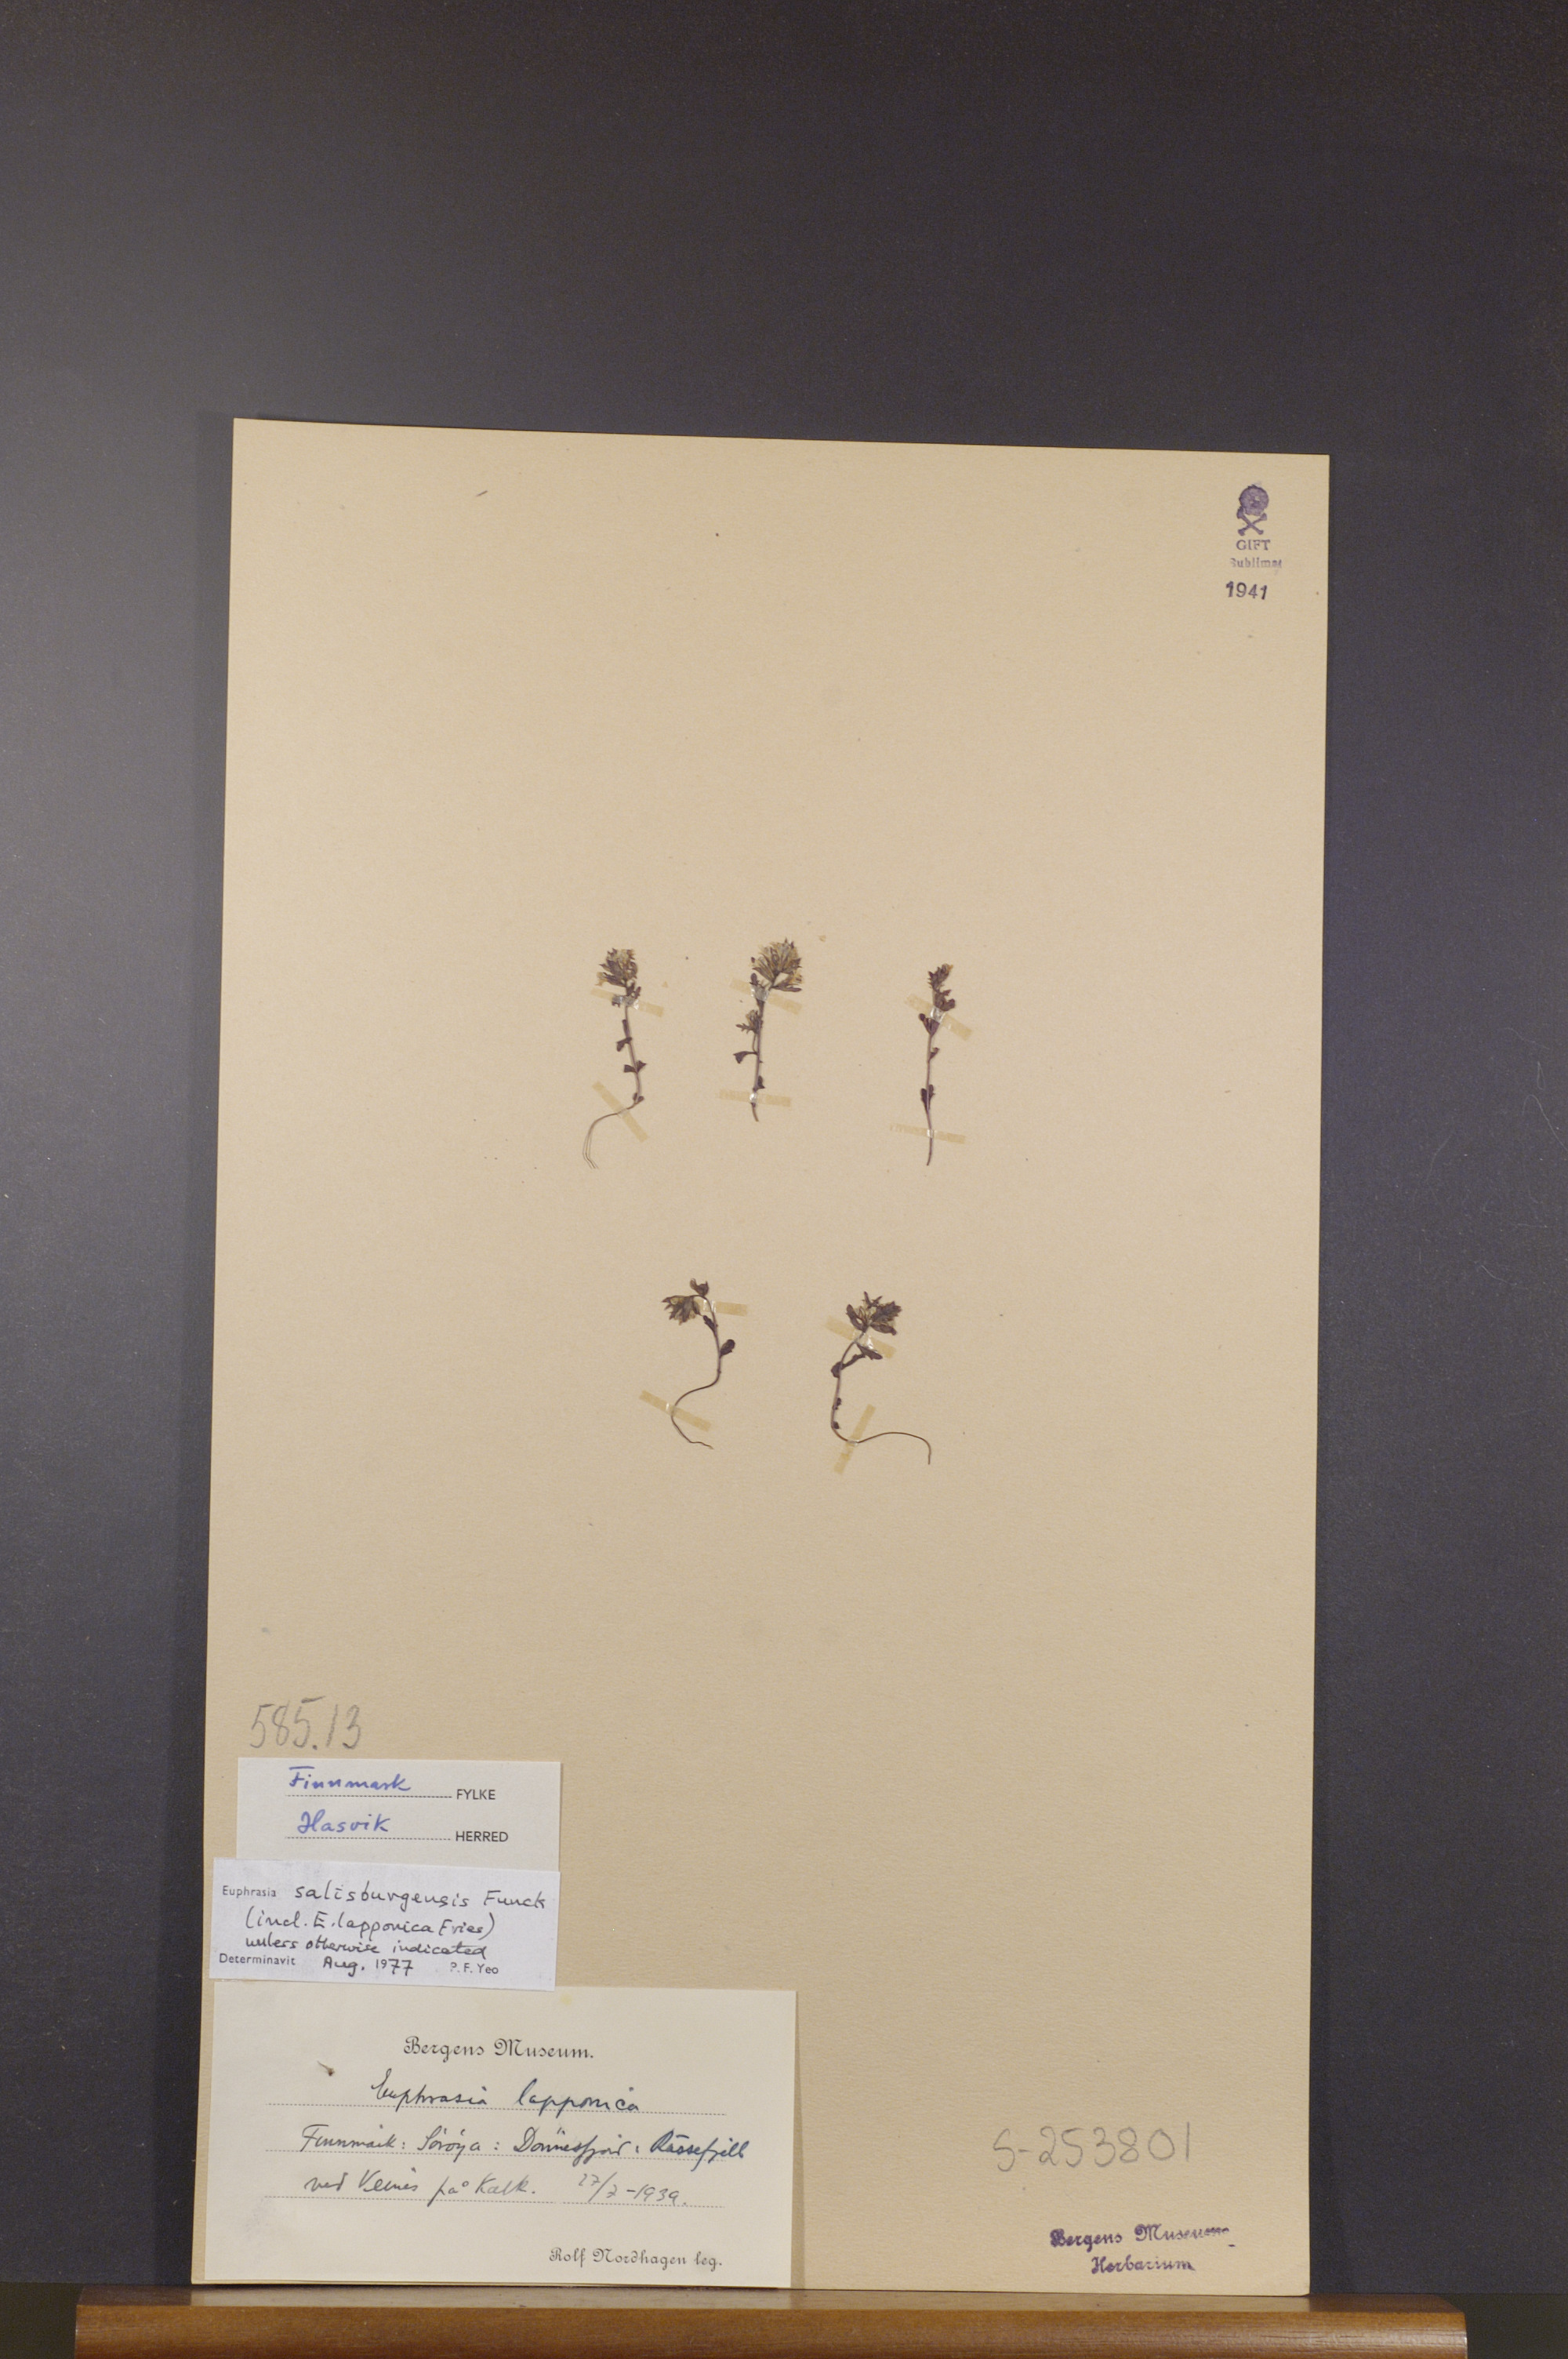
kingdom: Plantae
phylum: Tracheophyta
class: Magnoliopsida
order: Lamiales
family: Orobanchaceae
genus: Euphrasia
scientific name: Euphrasia salisburgensis
